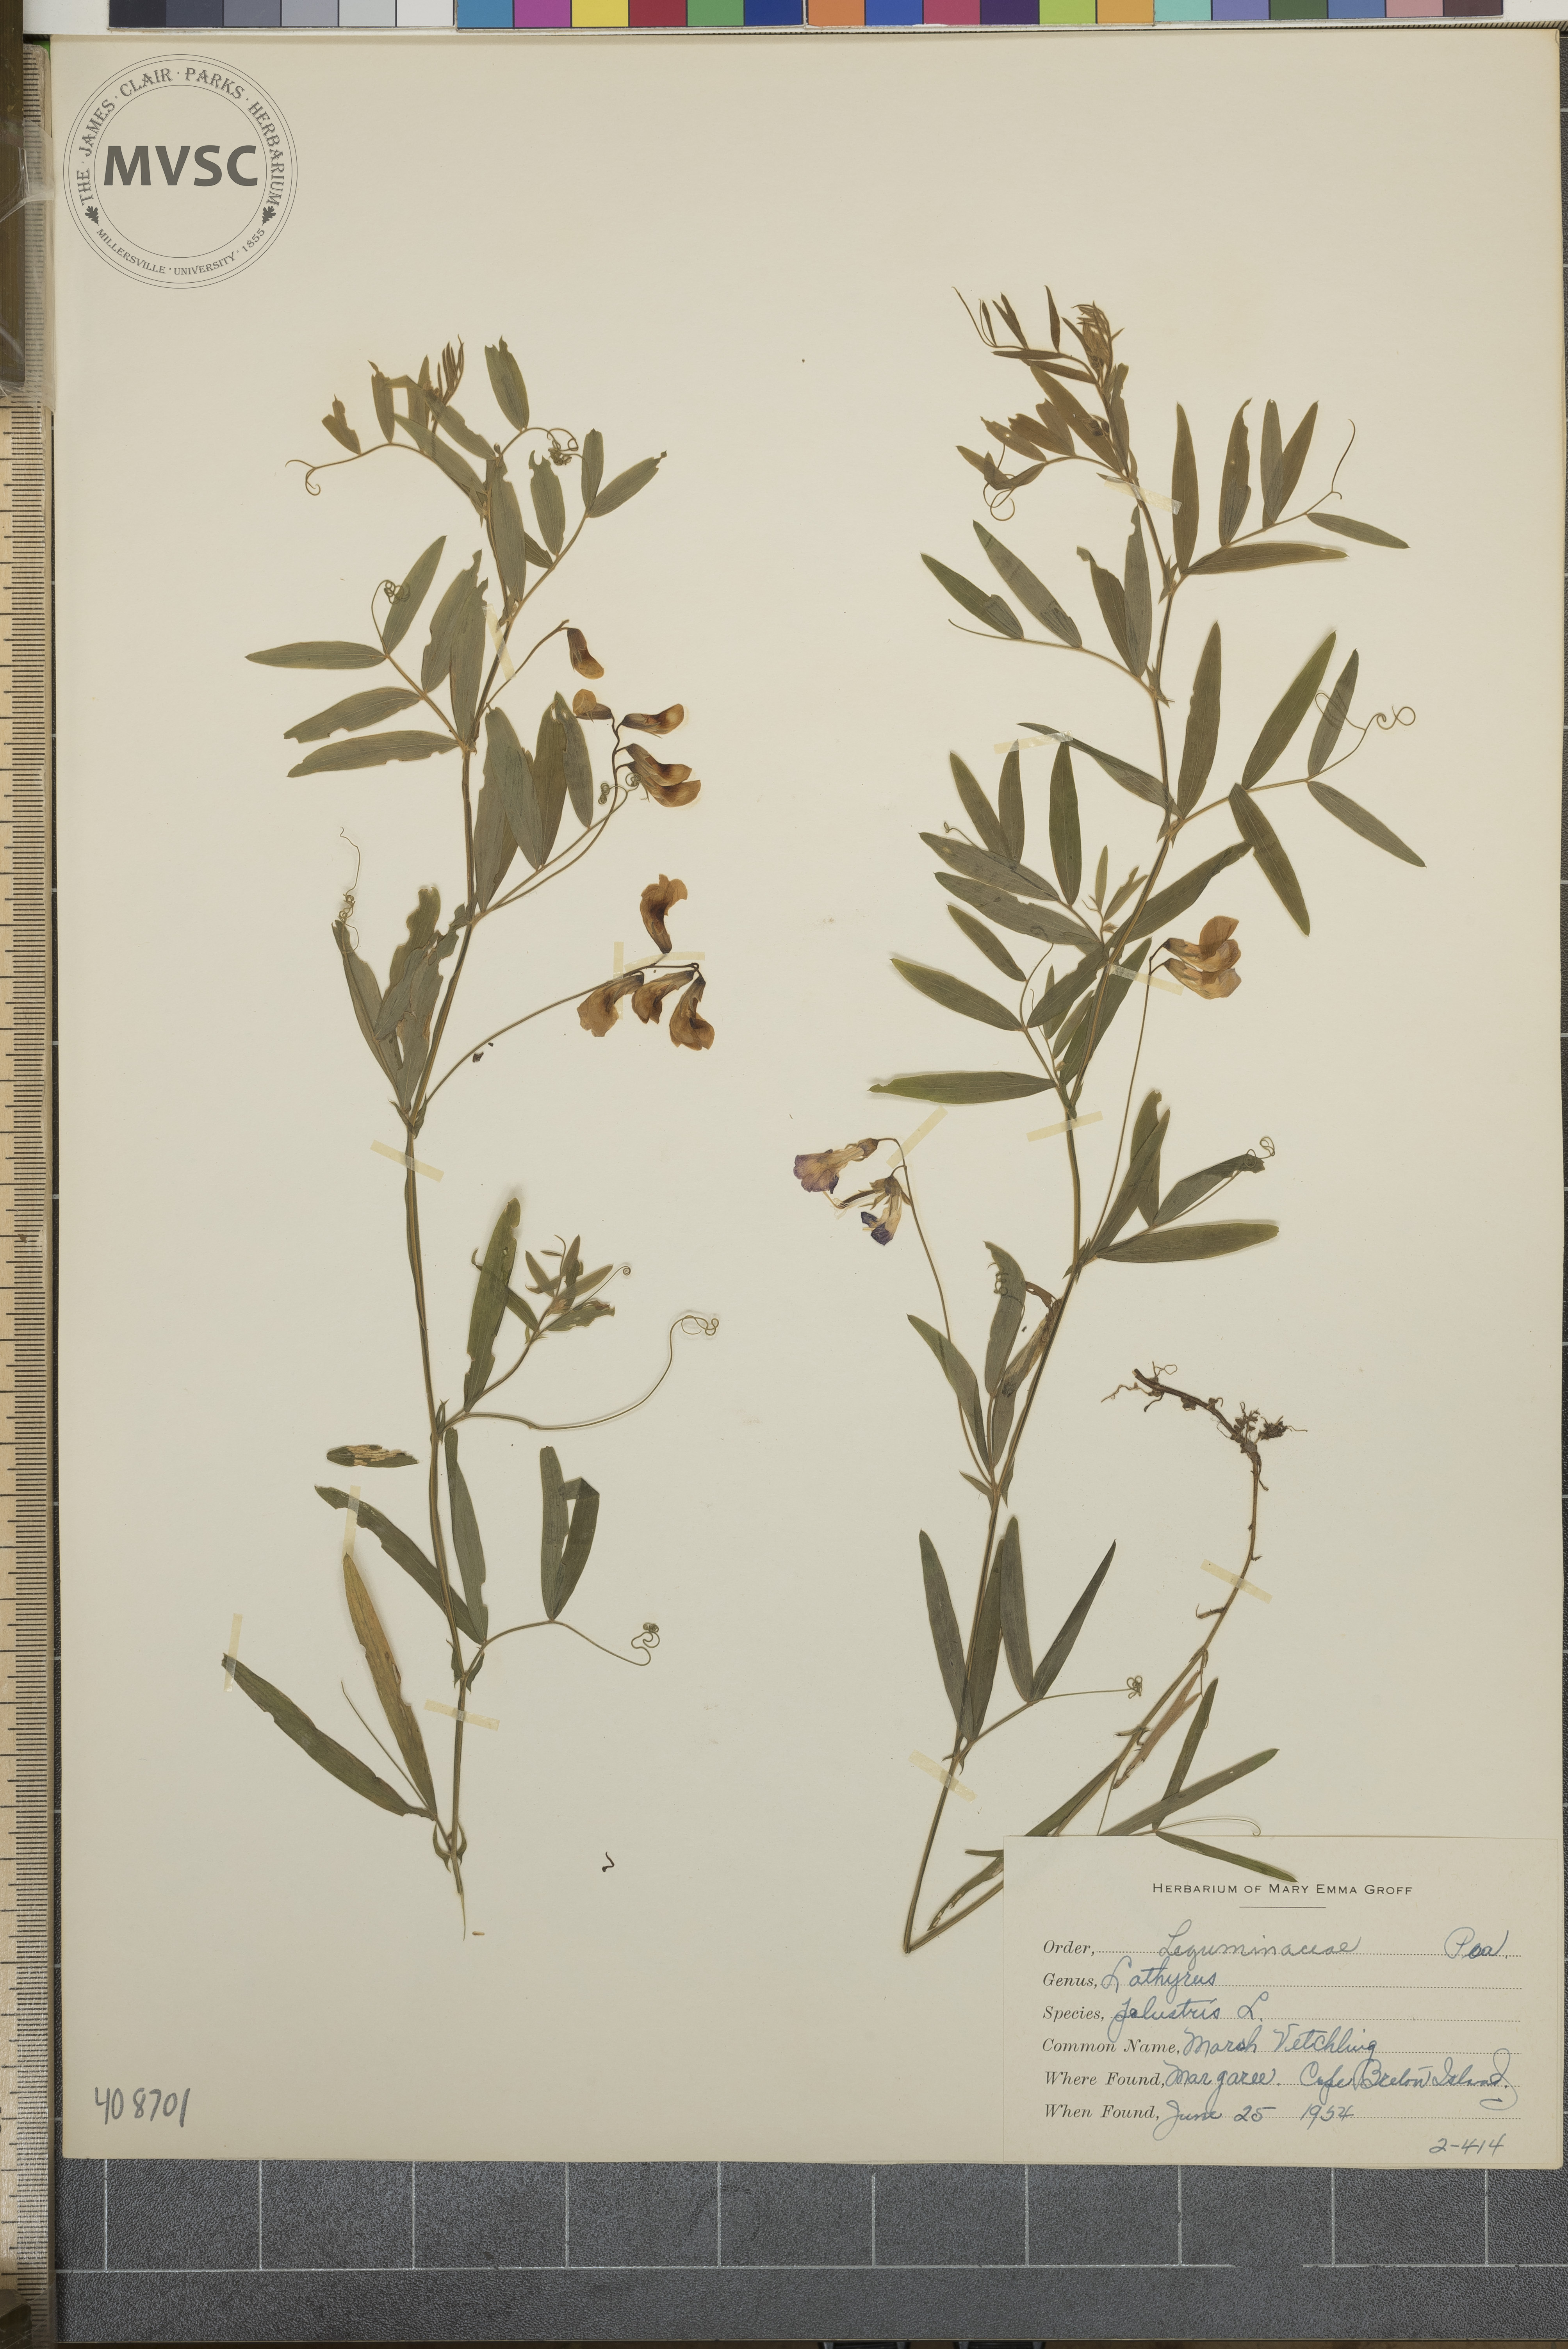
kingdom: Plantae
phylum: Tracheophyta
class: Magnoliopsida
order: Fabales
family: Fabaceae
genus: Lathyrus
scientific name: Lathyrus palustris
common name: Marsh Vetchling
